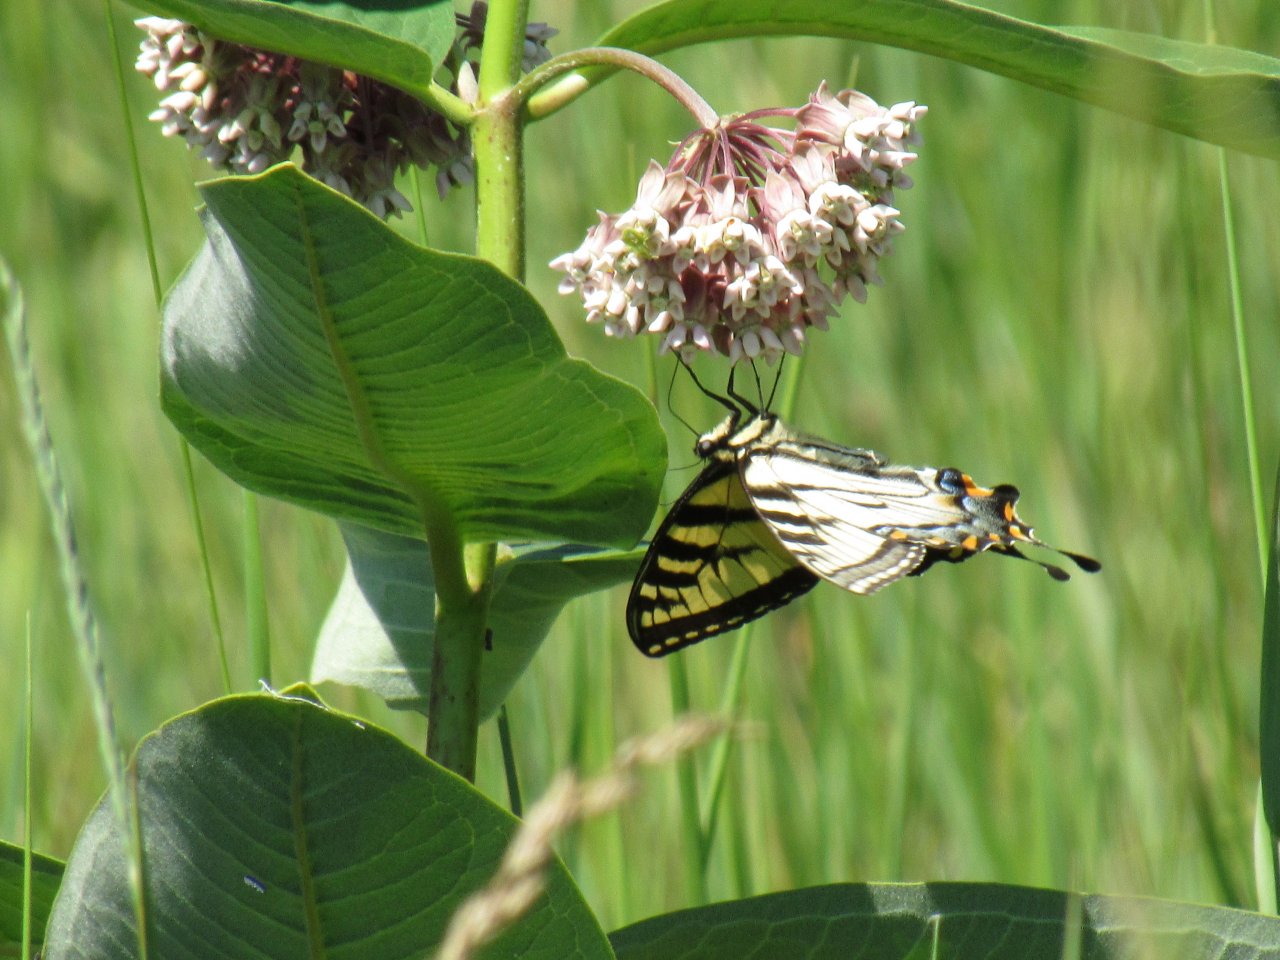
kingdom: Animalia
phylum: Arthropoda
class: Insecta
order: Lepidoptera
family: Papilionidae
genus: Pterourus
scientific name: Pterourus
